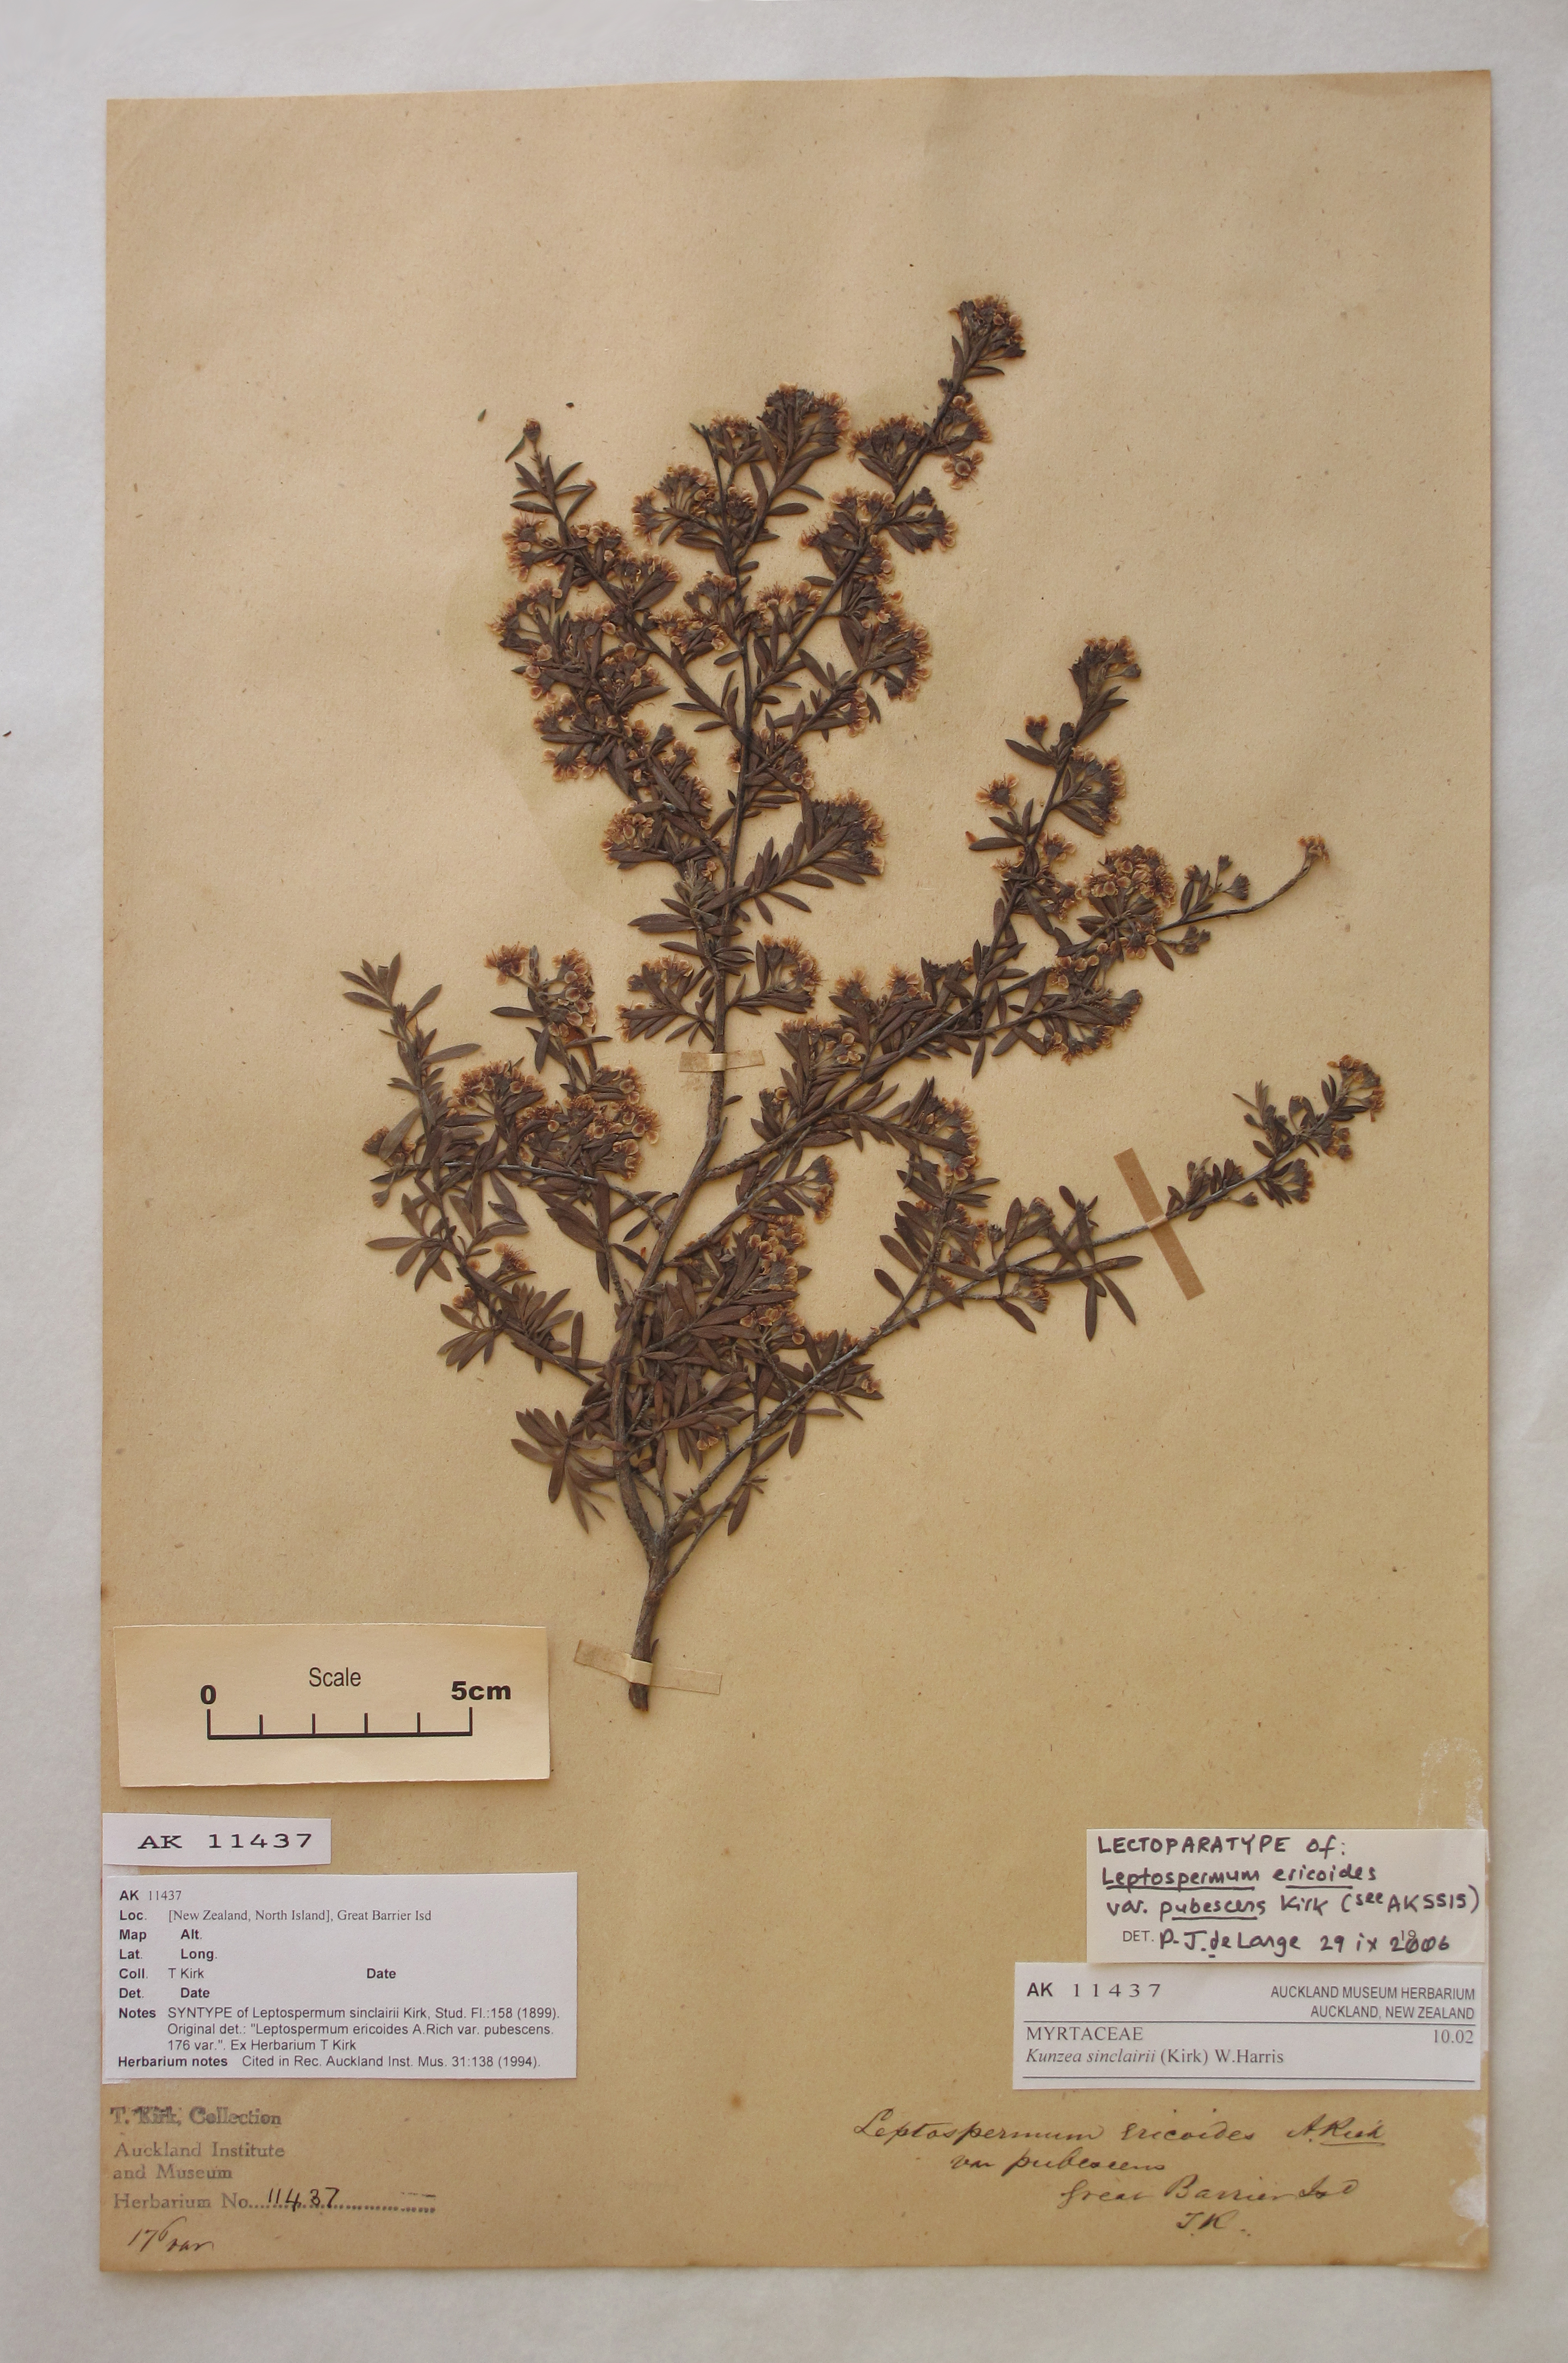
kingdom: Plantae
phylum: Tracheophyta
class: Magnoliopsida
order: Myrtales
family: Myrtaceae
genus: Kunzea
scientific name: Kunzea sinclairii
